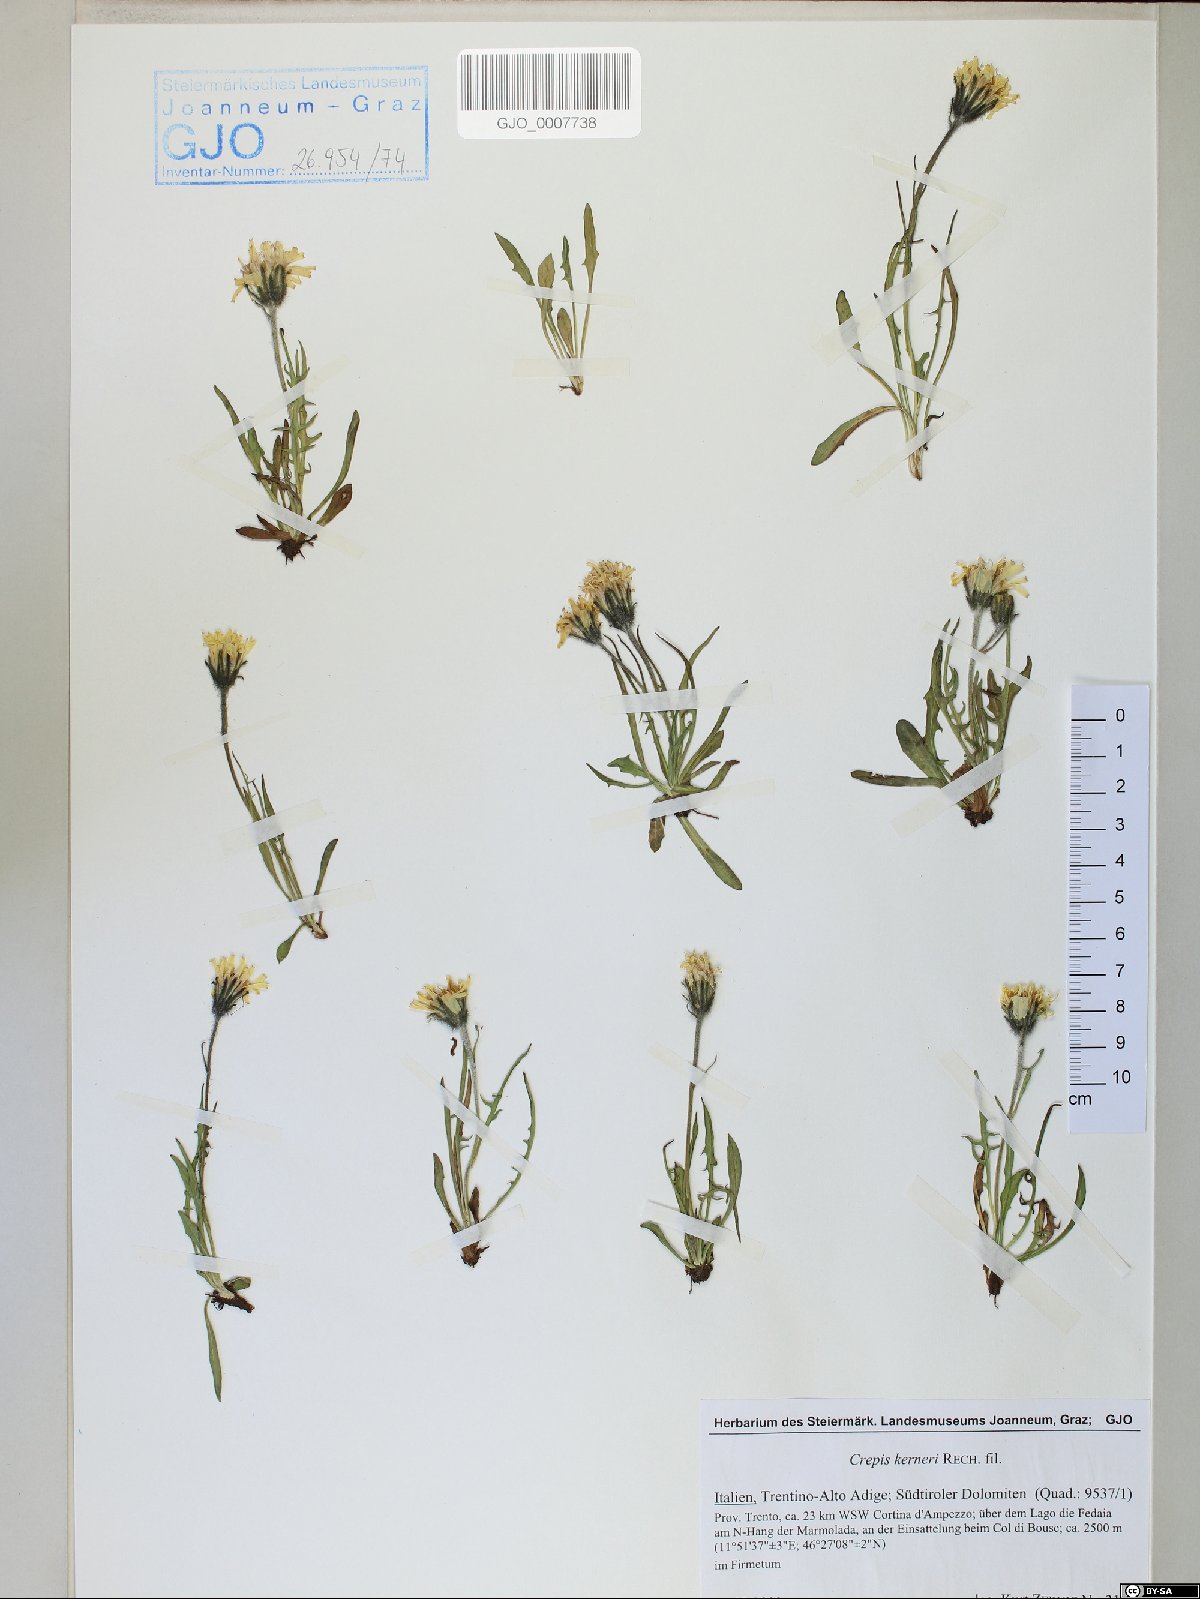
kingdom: Plantae
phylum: Tracheophyta
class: Magnoliopsida
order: Asterales
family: Asteraceae
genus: Crepis
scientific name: Crepis jacquinii
